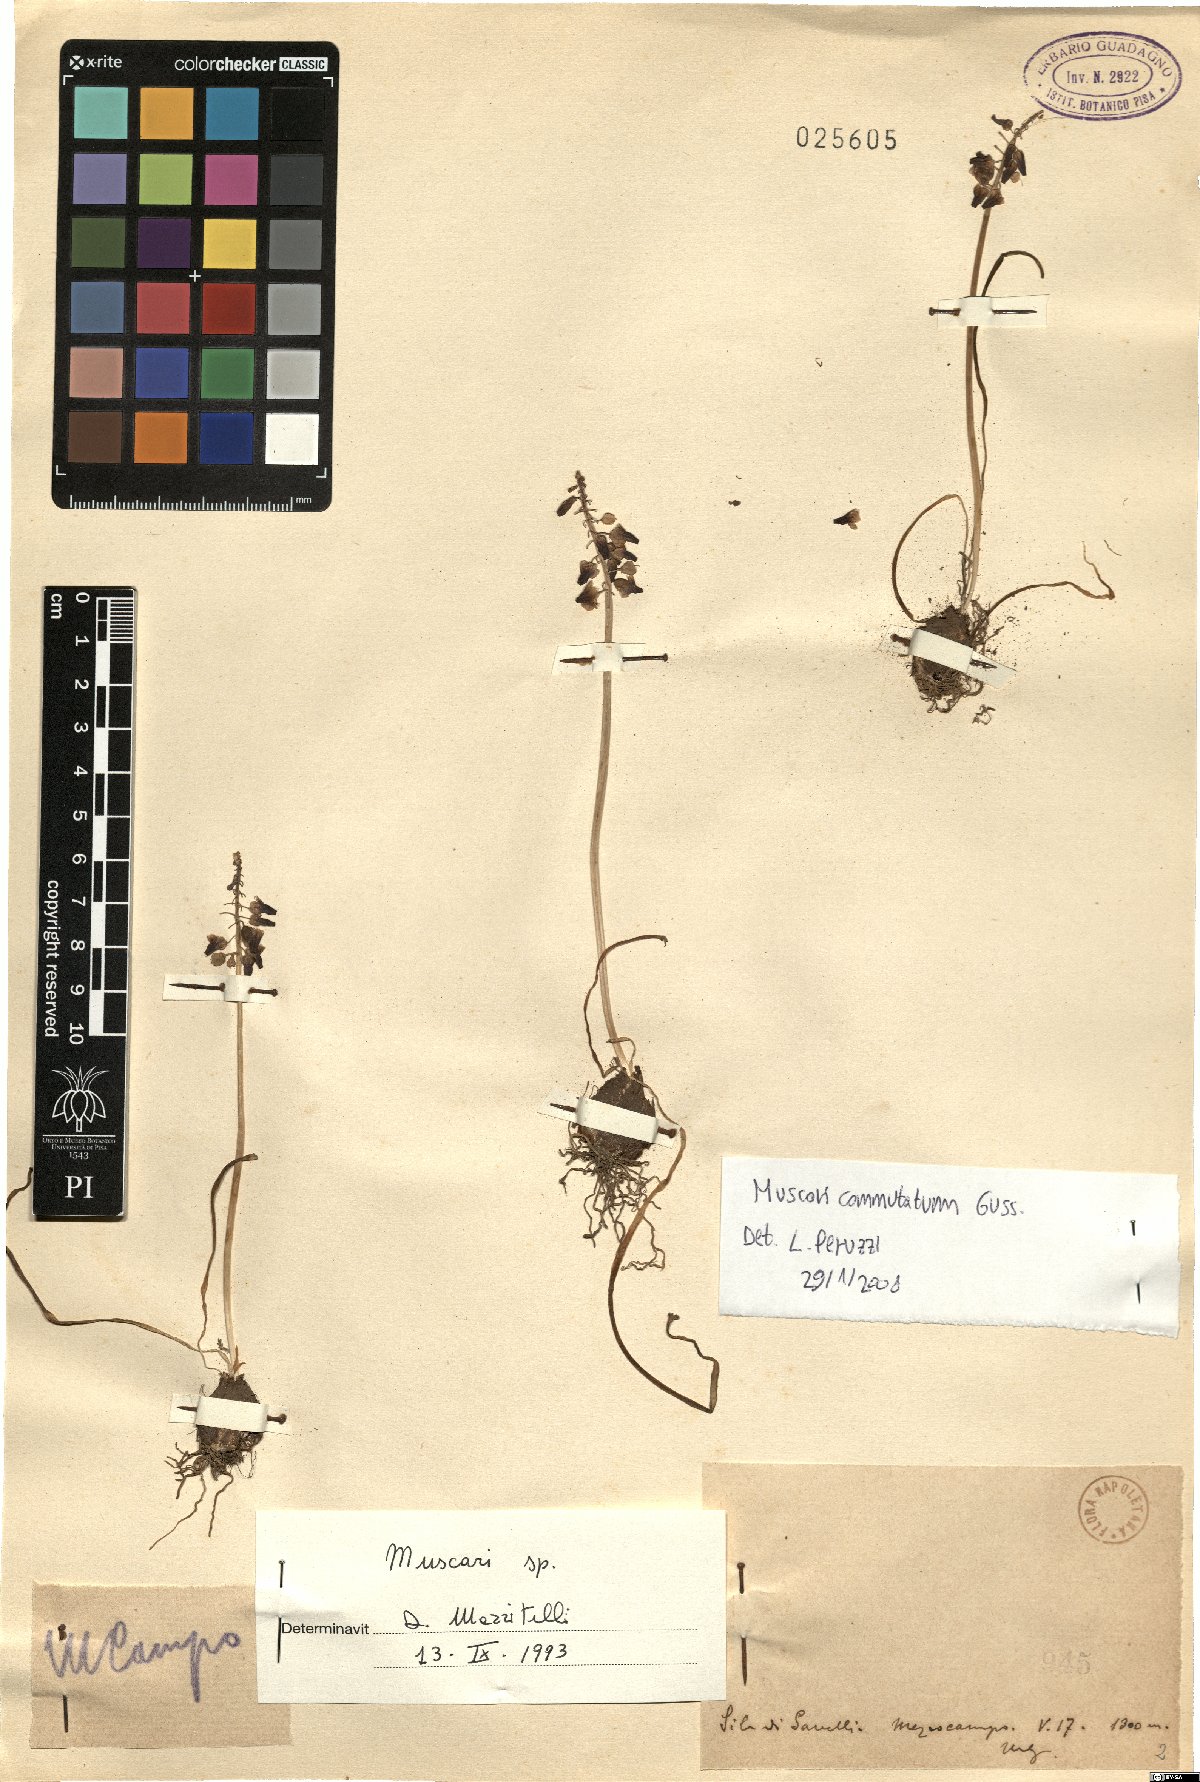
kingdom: Plantae
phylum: Tracheophyta
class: Liliopsida
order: Asparagales
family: Asparagaceae
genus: Muscari
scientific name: Muscari commutatum
